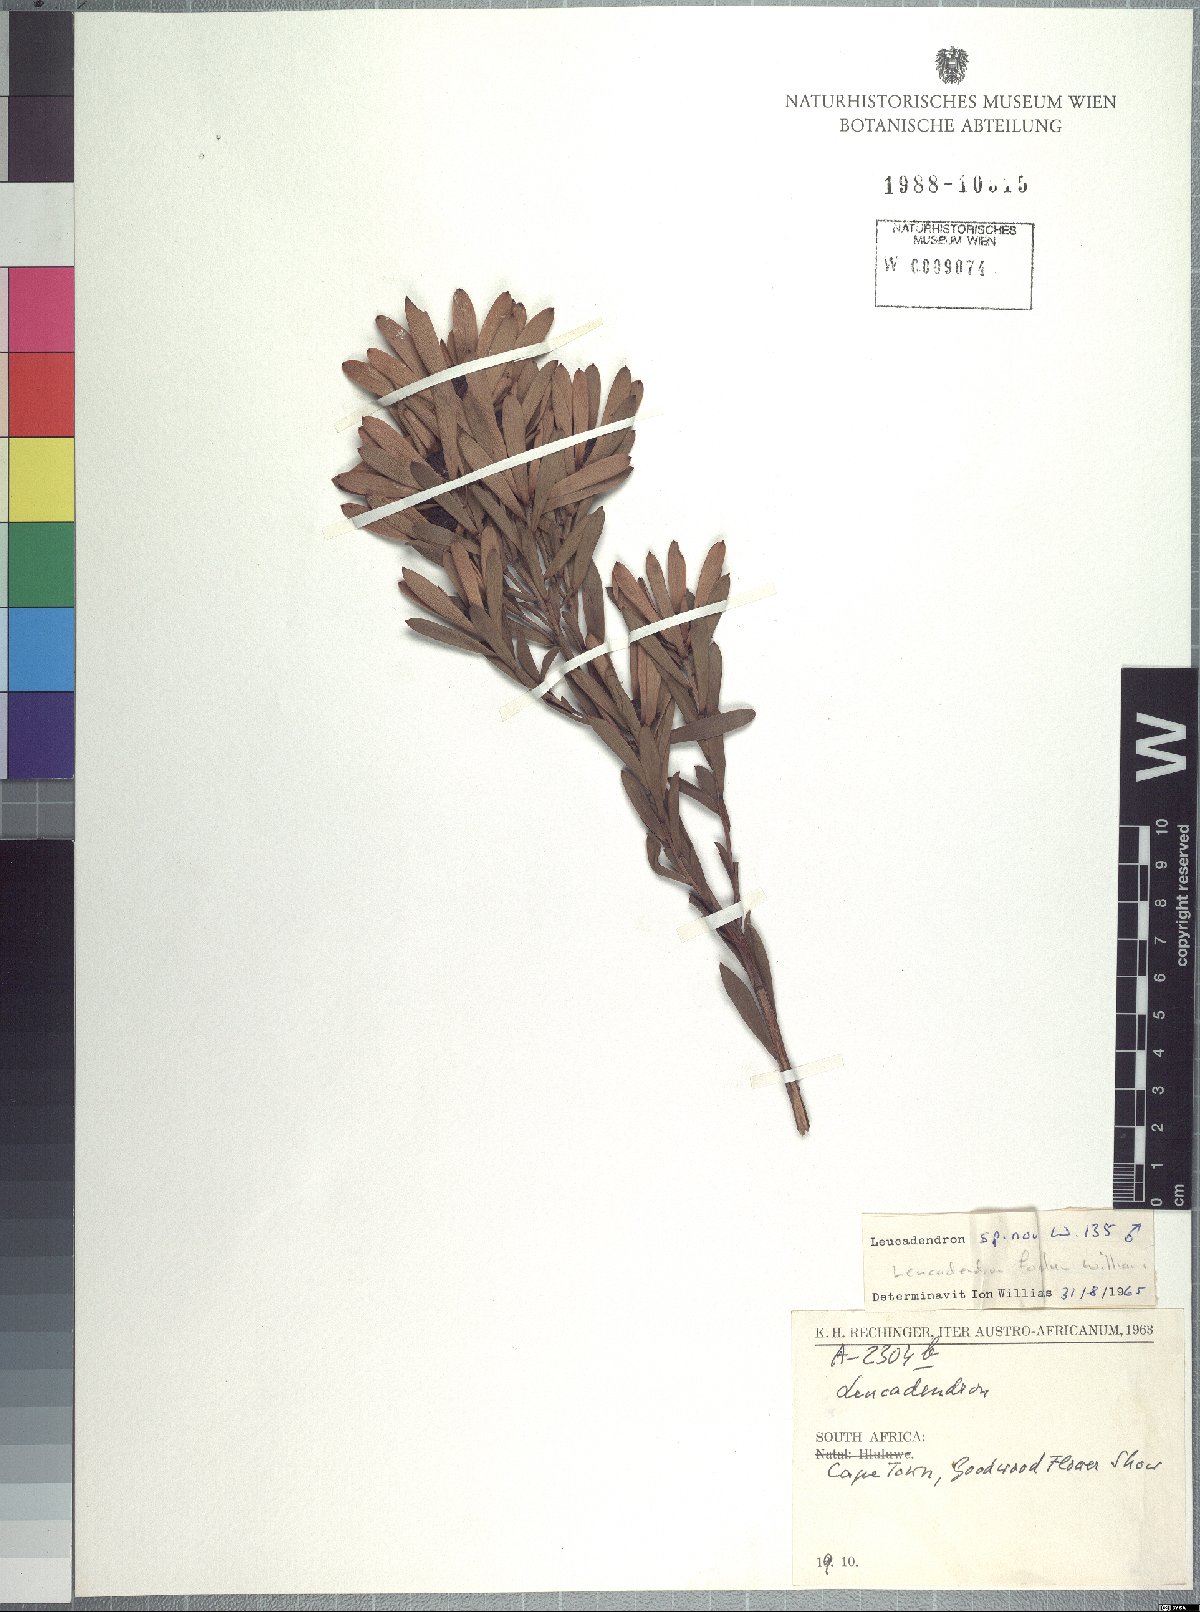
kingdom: Plantae
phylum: Tracheophyta
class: Magnoliopsida
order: Proteales
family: Proteaceae
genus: Leucadendron
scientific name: Leucadendron foedum
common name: Hopefield conebush
